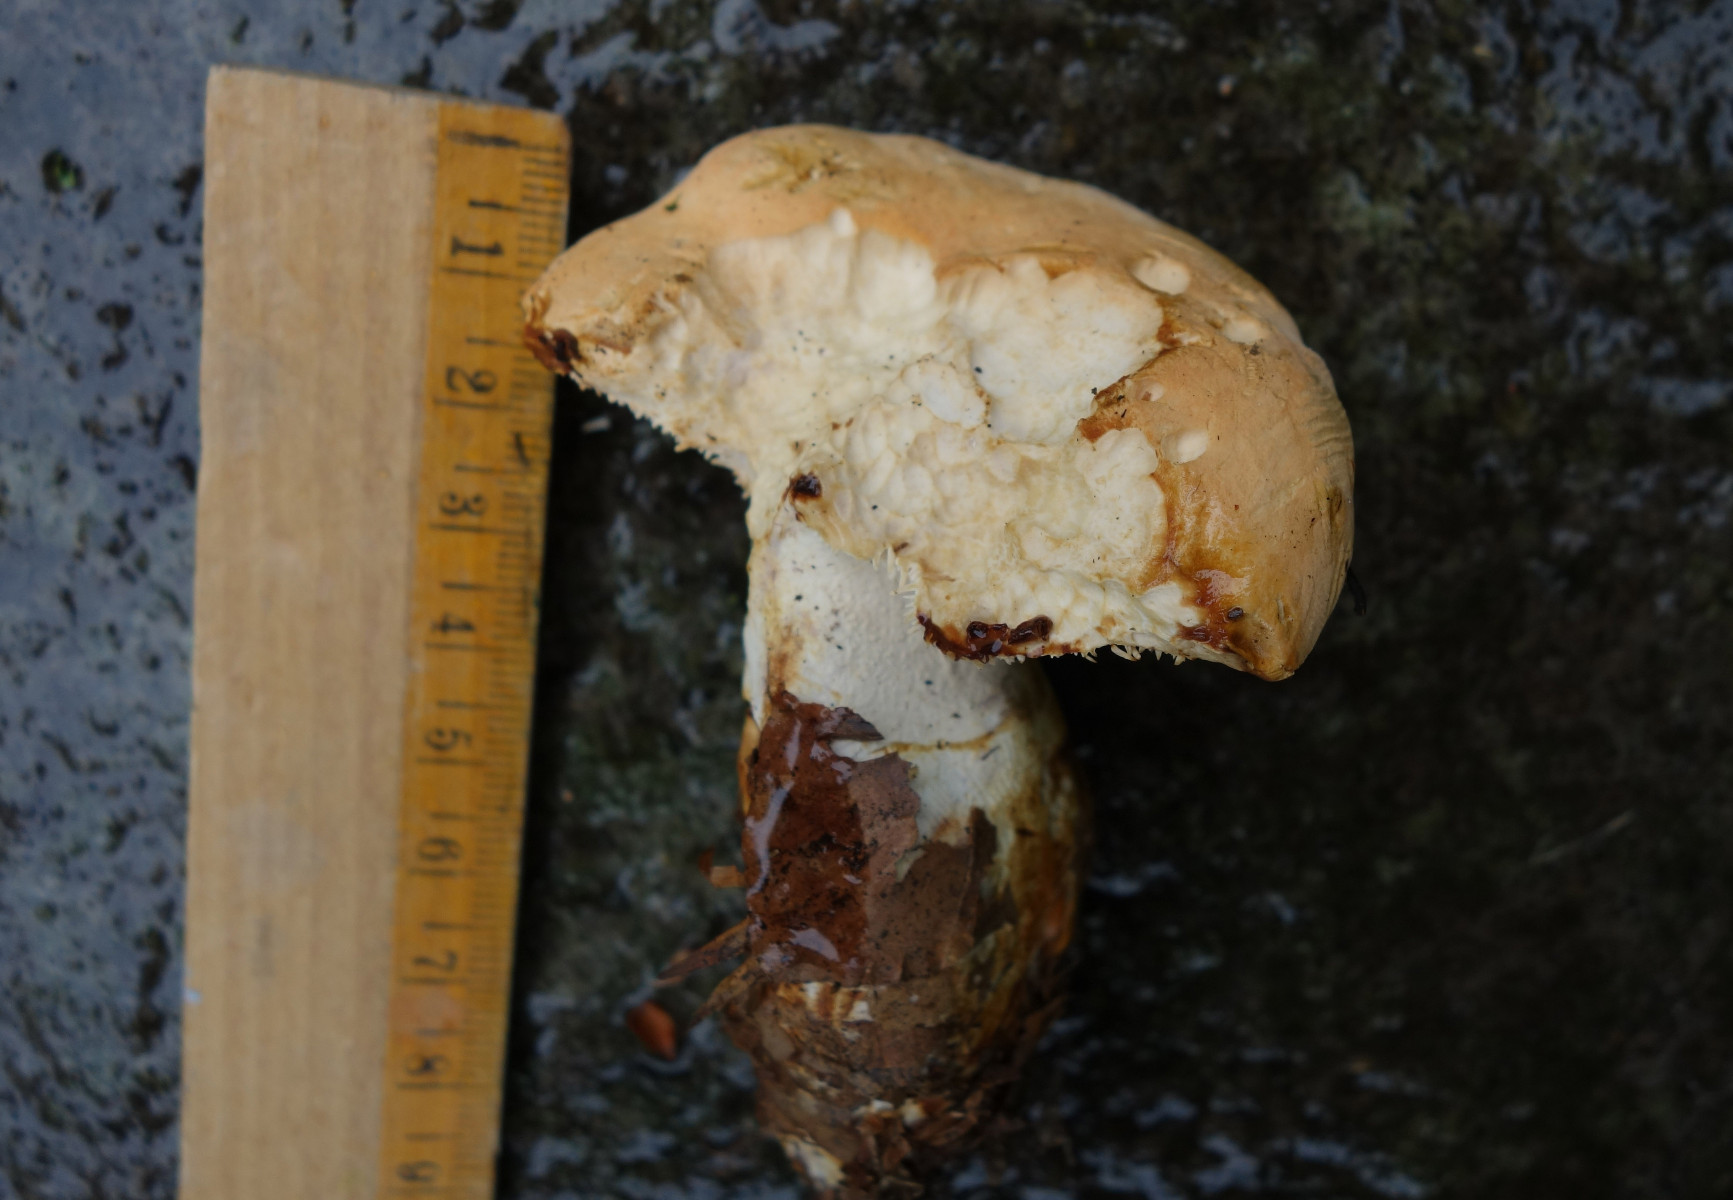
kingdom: Fungi
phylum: Basidiomycota
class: Agaricomycetes
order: Cantharellales
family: Hydnaceae
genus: Hydnum
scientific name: Hydnum ellipsosporum
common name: tandet pigsvamp
